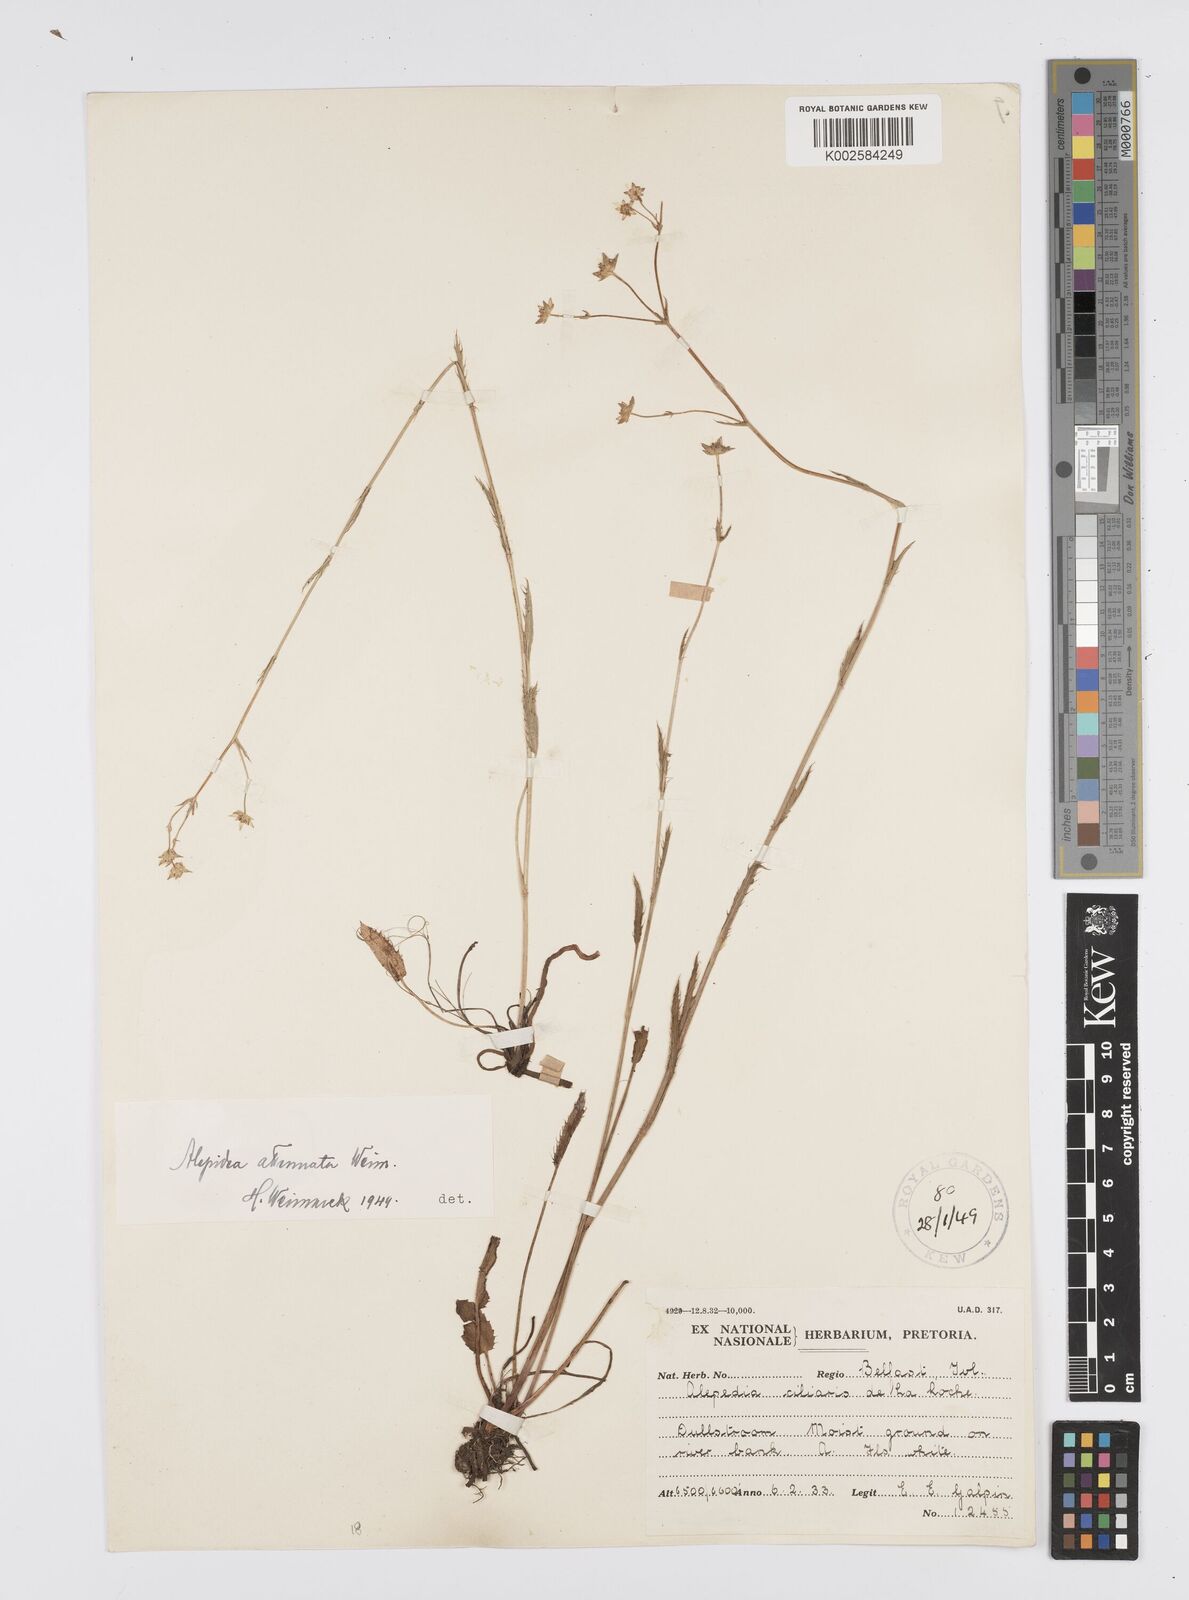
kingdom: Plantae
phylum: Tracheophyta
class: Magnoliopsida
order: Apiales
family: Apiaceae
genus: Alepidea
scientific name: Alepidea attenuata
